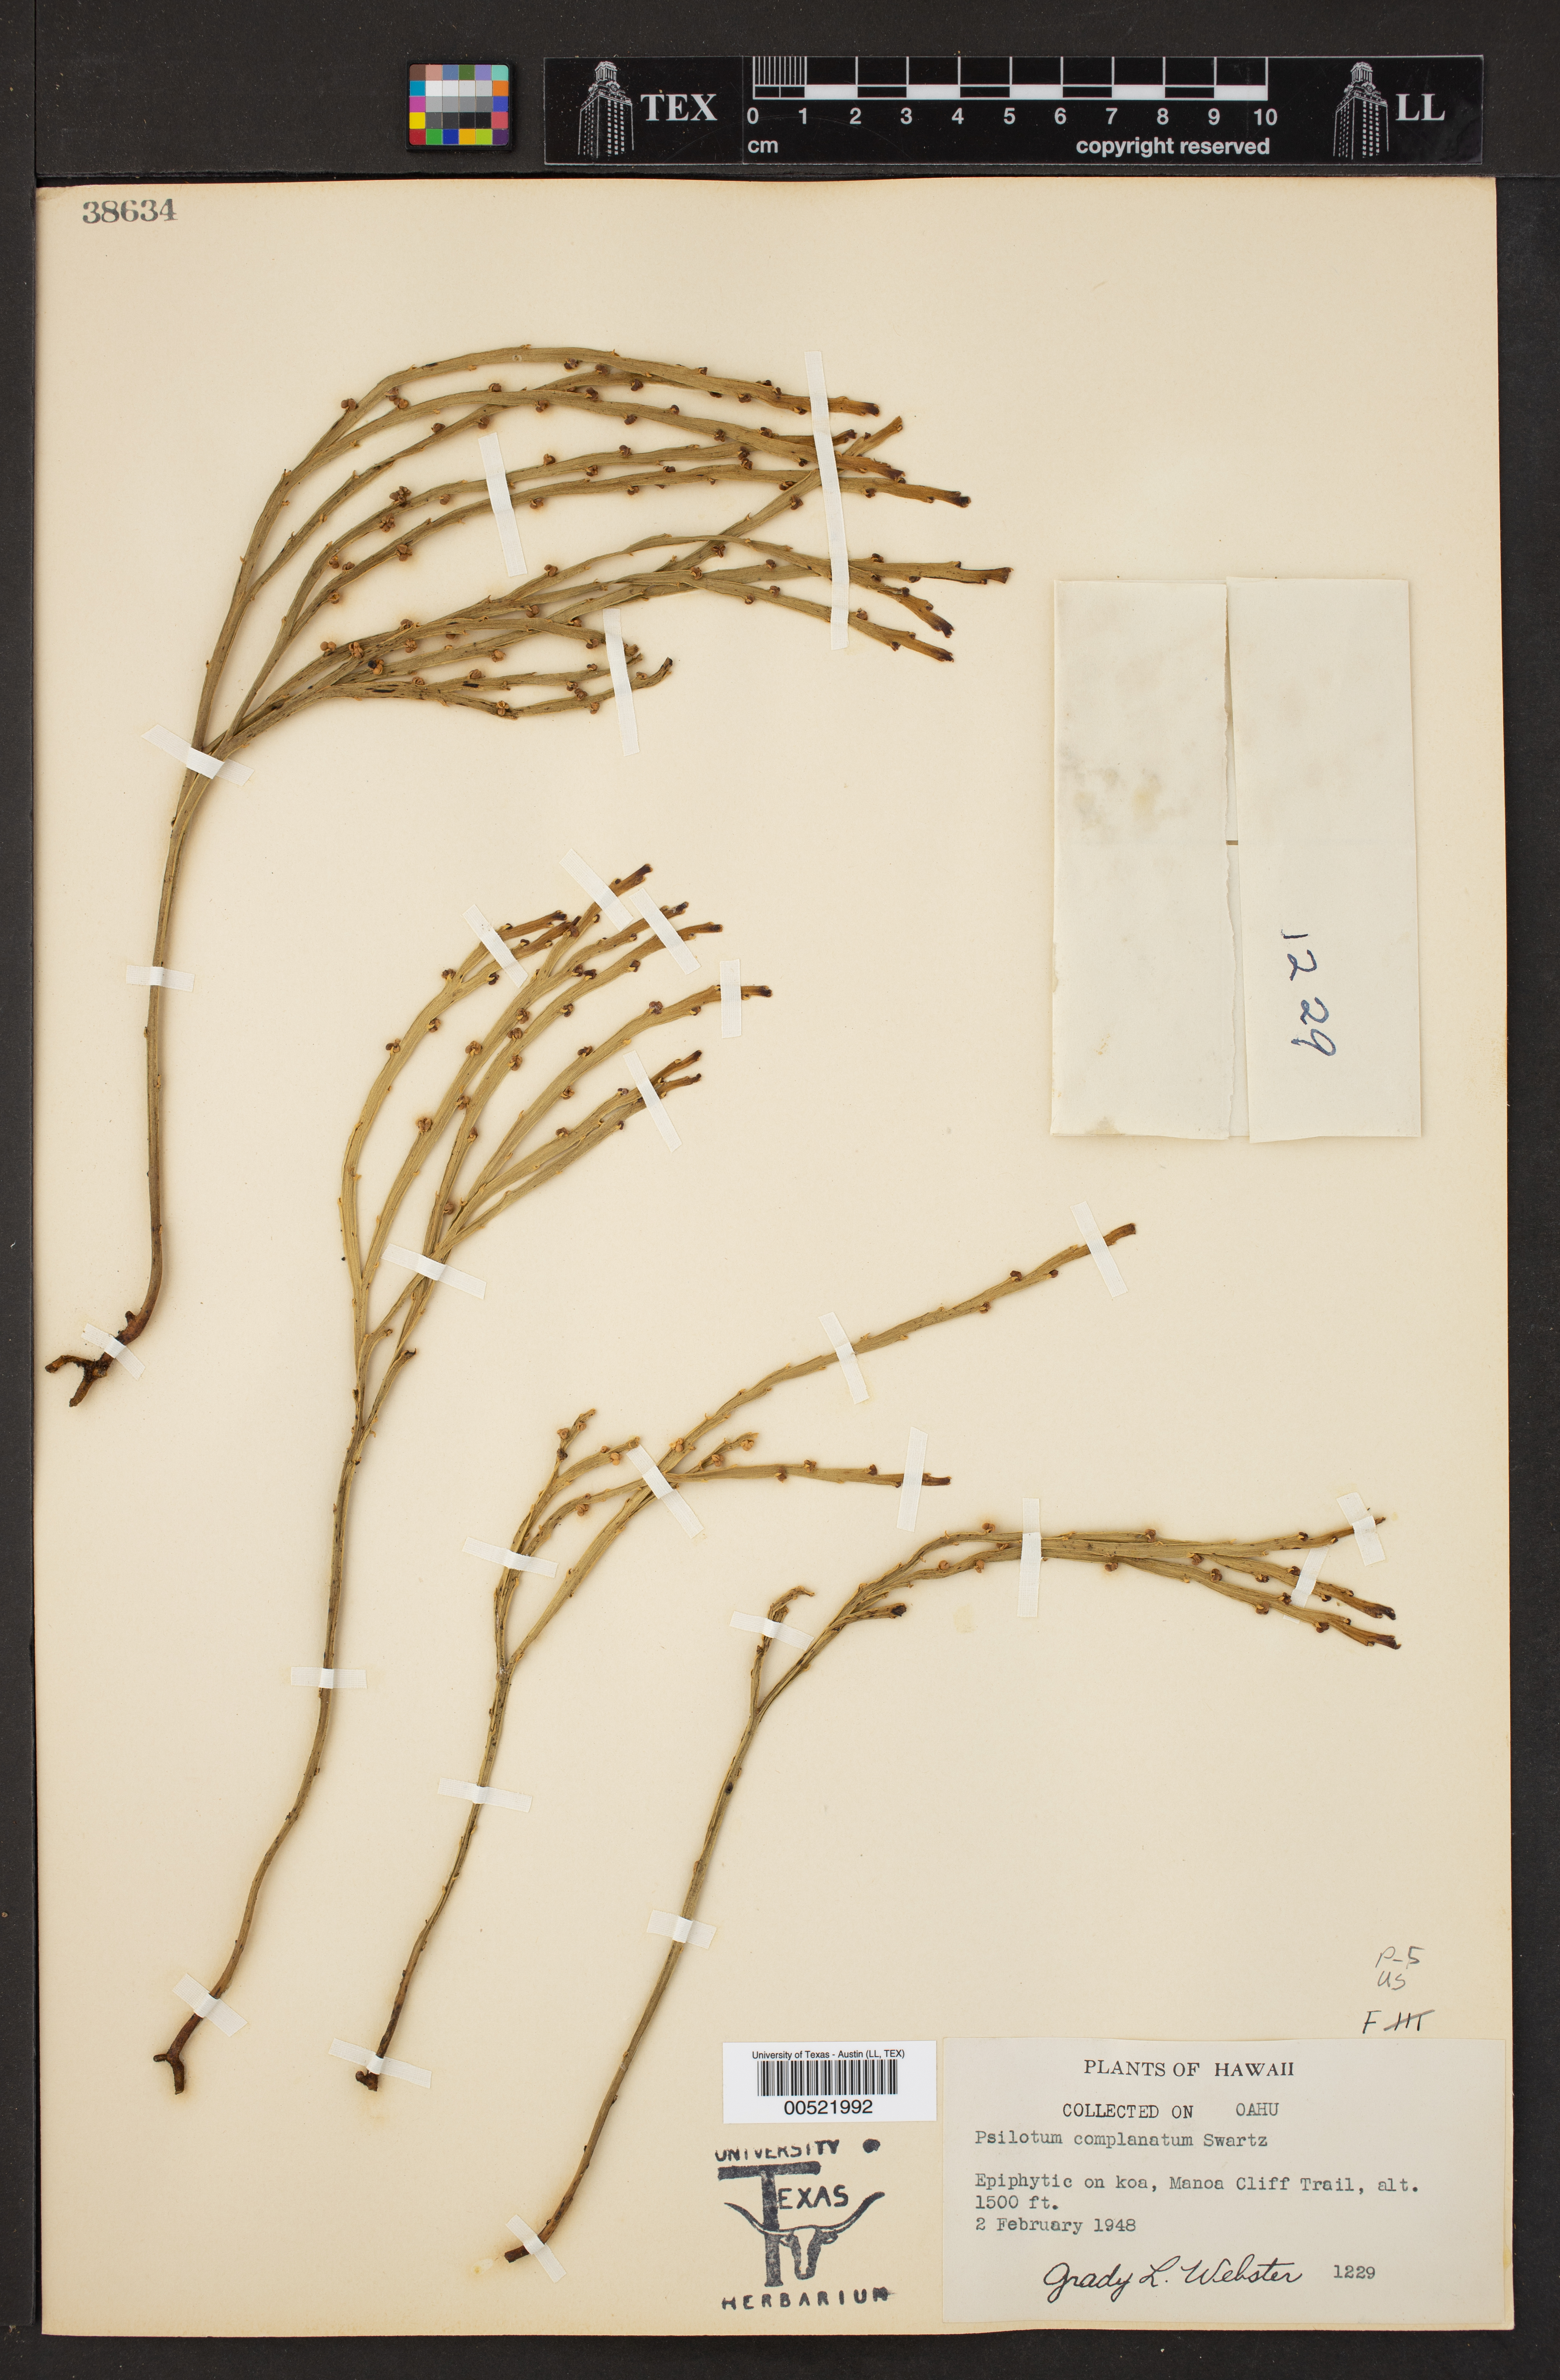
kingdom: Plantae
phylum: Tracheophyta
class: Polypodiopsida
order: Psilotales
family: Psilotaceae
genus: Psilotum
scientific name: Psilotum complanatum
